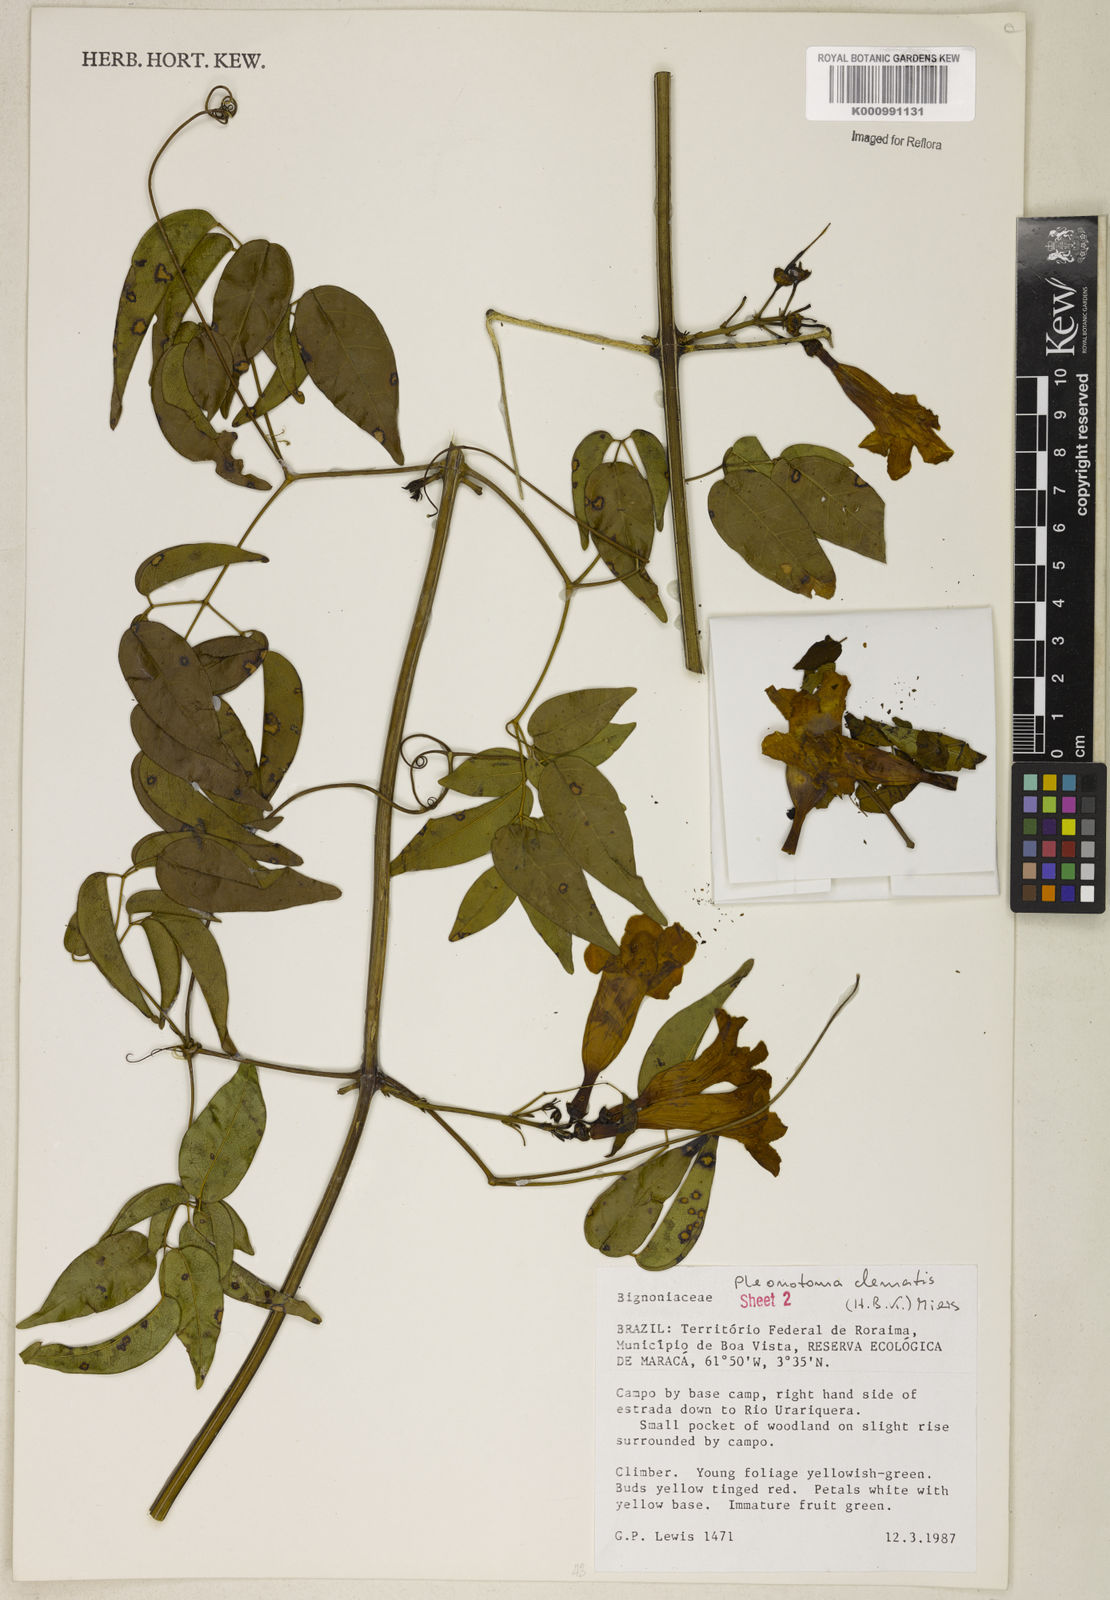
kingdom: Plantae
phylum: Tracheophyta
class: Magnoliopsida
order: Lamiales
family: Bignoniaceae
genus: Pleonotoma
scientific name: Pleonotoma clematis
